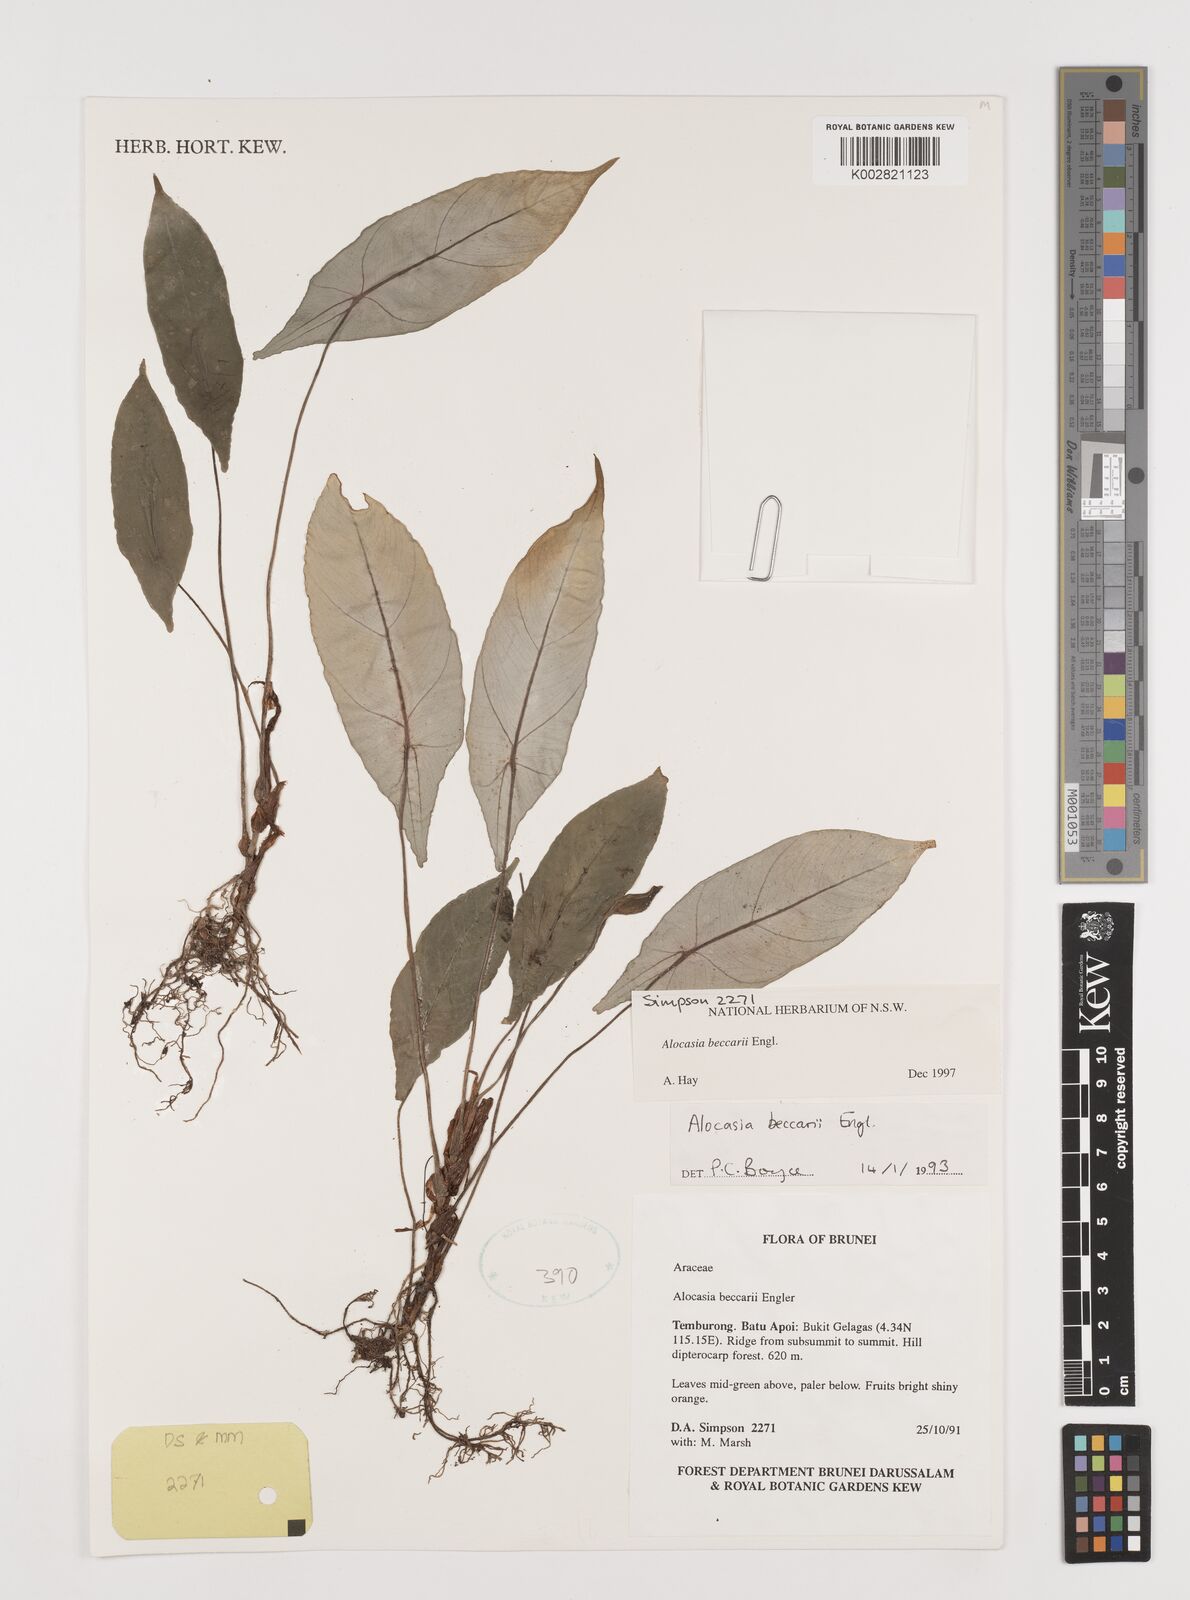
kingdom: Plantae
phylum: Tracheophyta
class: Liliopsida
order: Alismatales
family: Araceae
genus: Alocasia
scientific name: Alocasia beccarii
